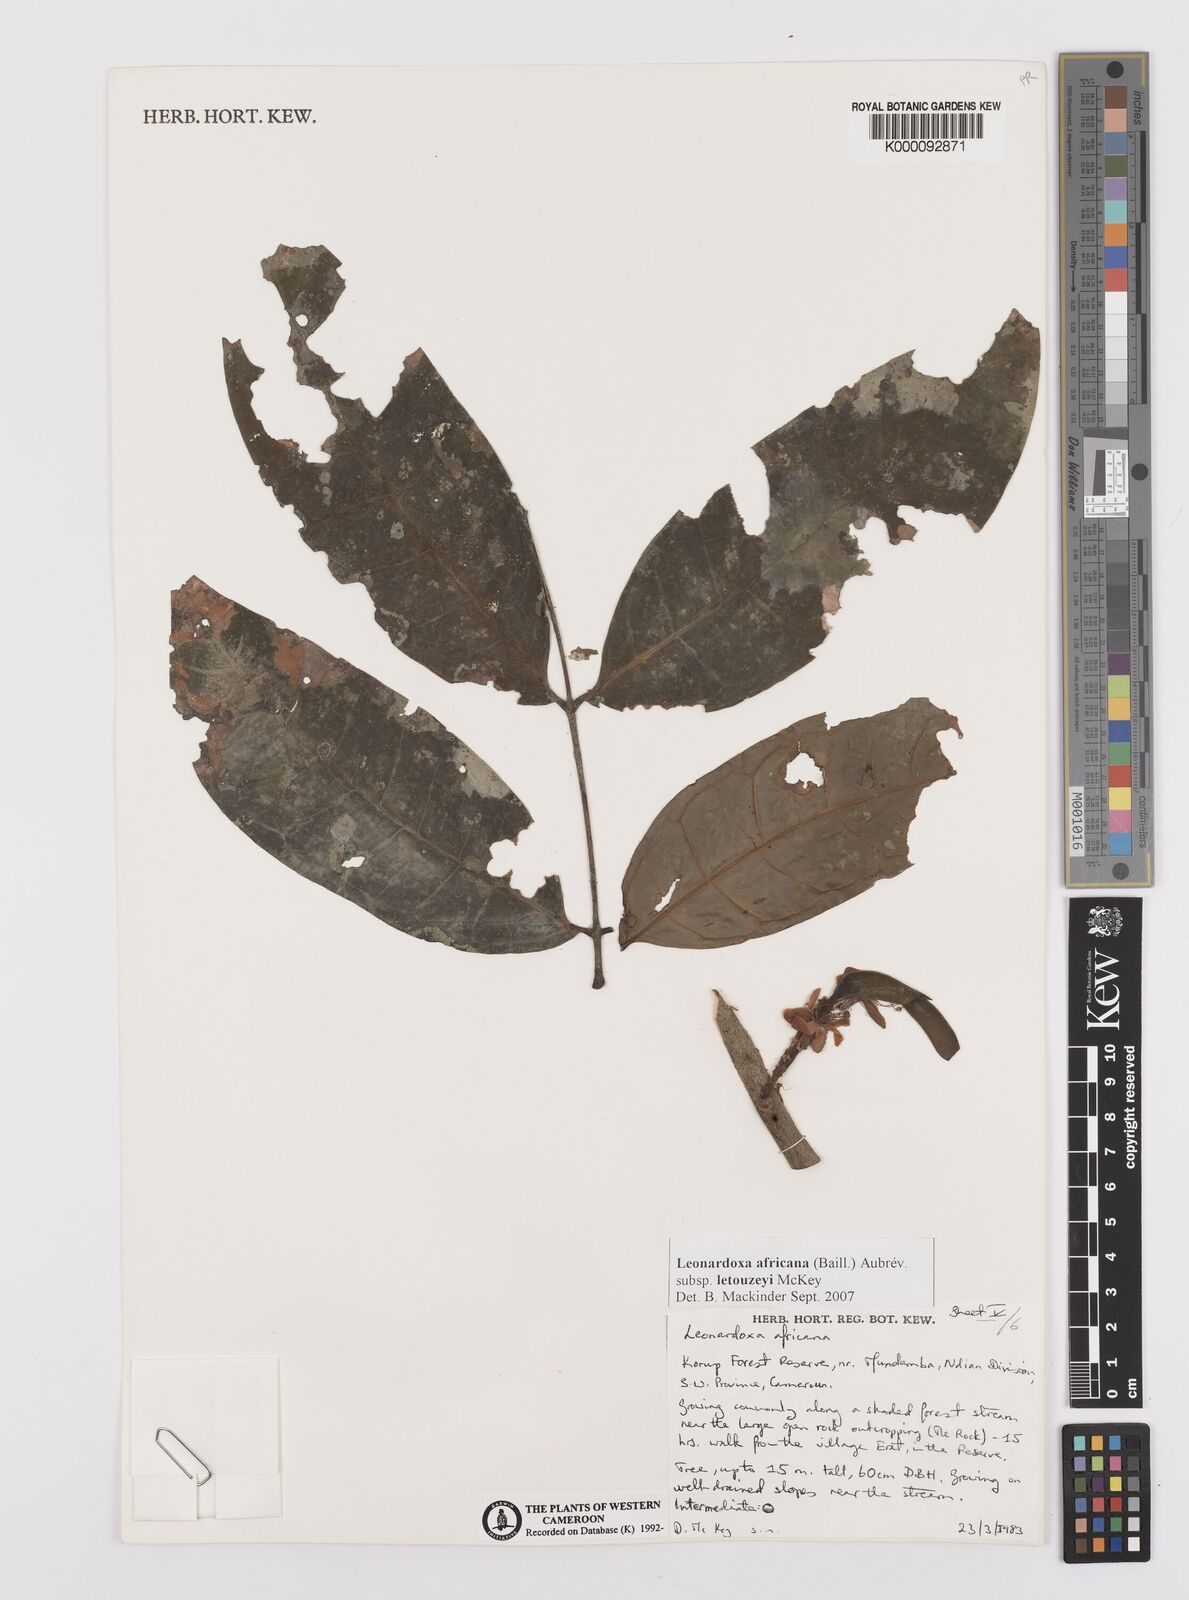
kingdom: Plantae
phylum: Tracheophyta
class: Magnoliopsida
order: Fabales
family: Fabaceae
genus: Leonardoxa
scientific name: Leonardoxa
